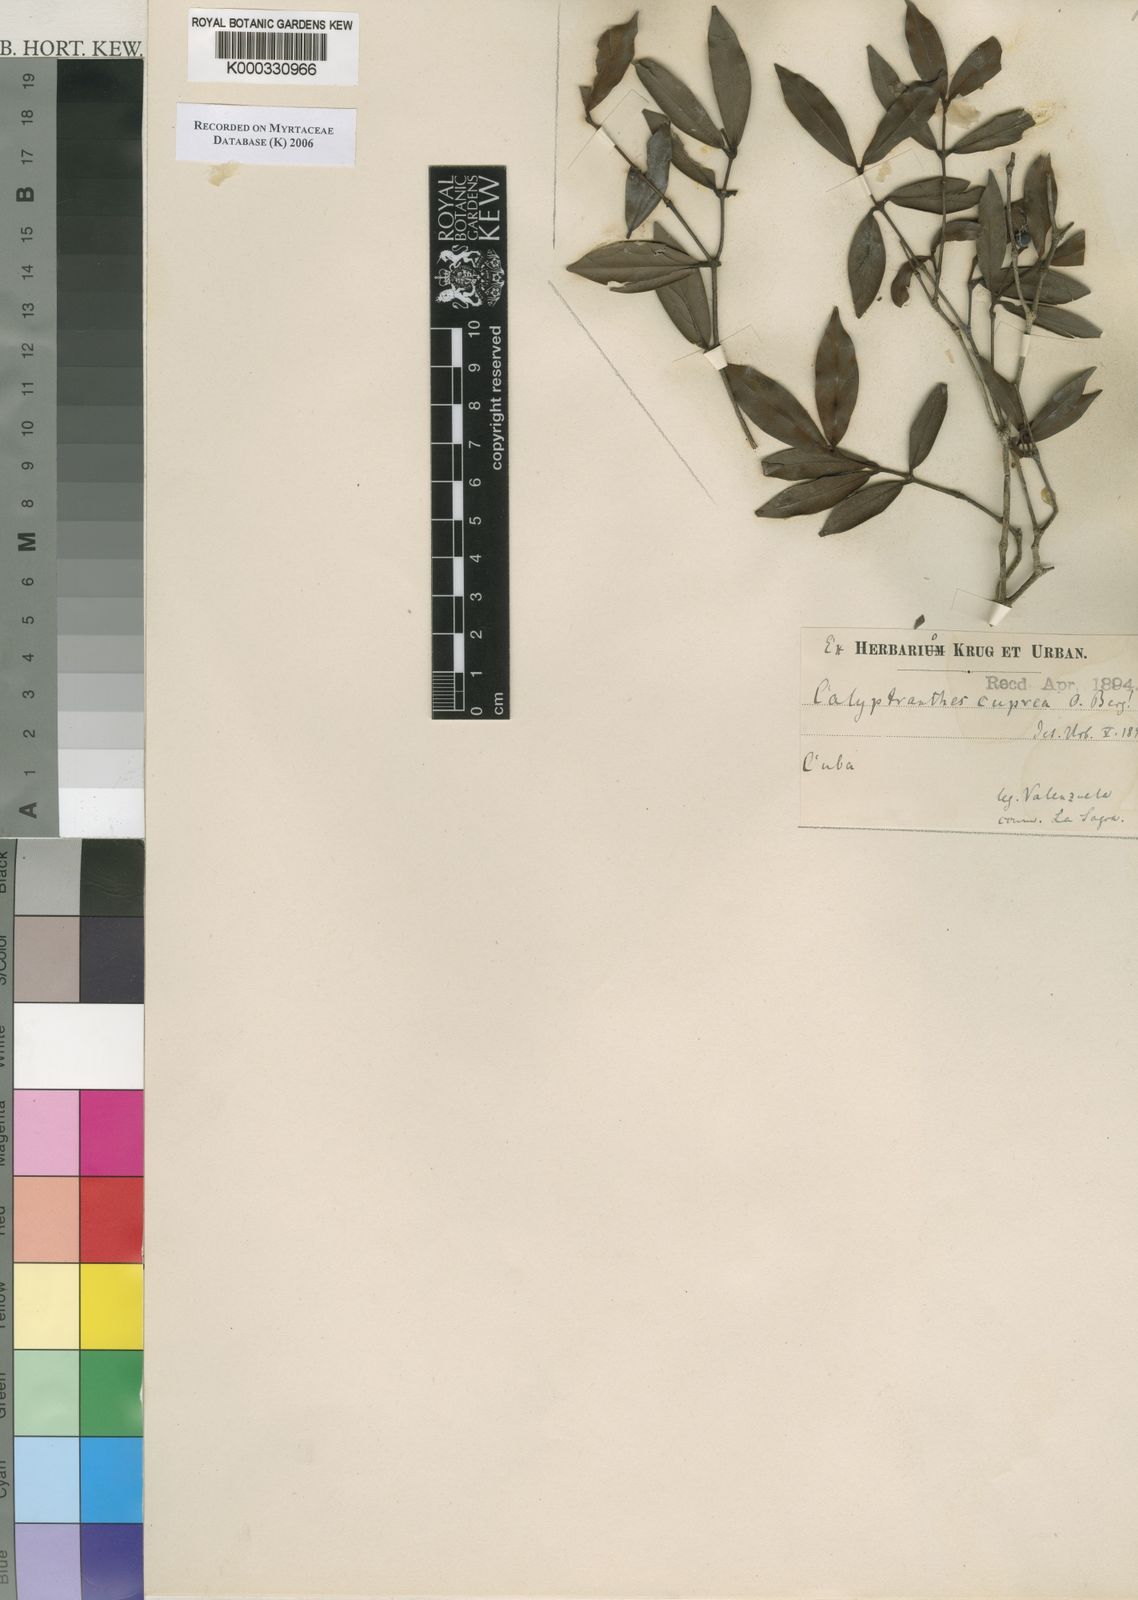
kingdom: Plantae
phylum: Tracheophyta
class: Magnoliopsida
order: Myrtales
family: Myrtaceae
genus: Myrcia
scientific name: Myrcia aerisea
